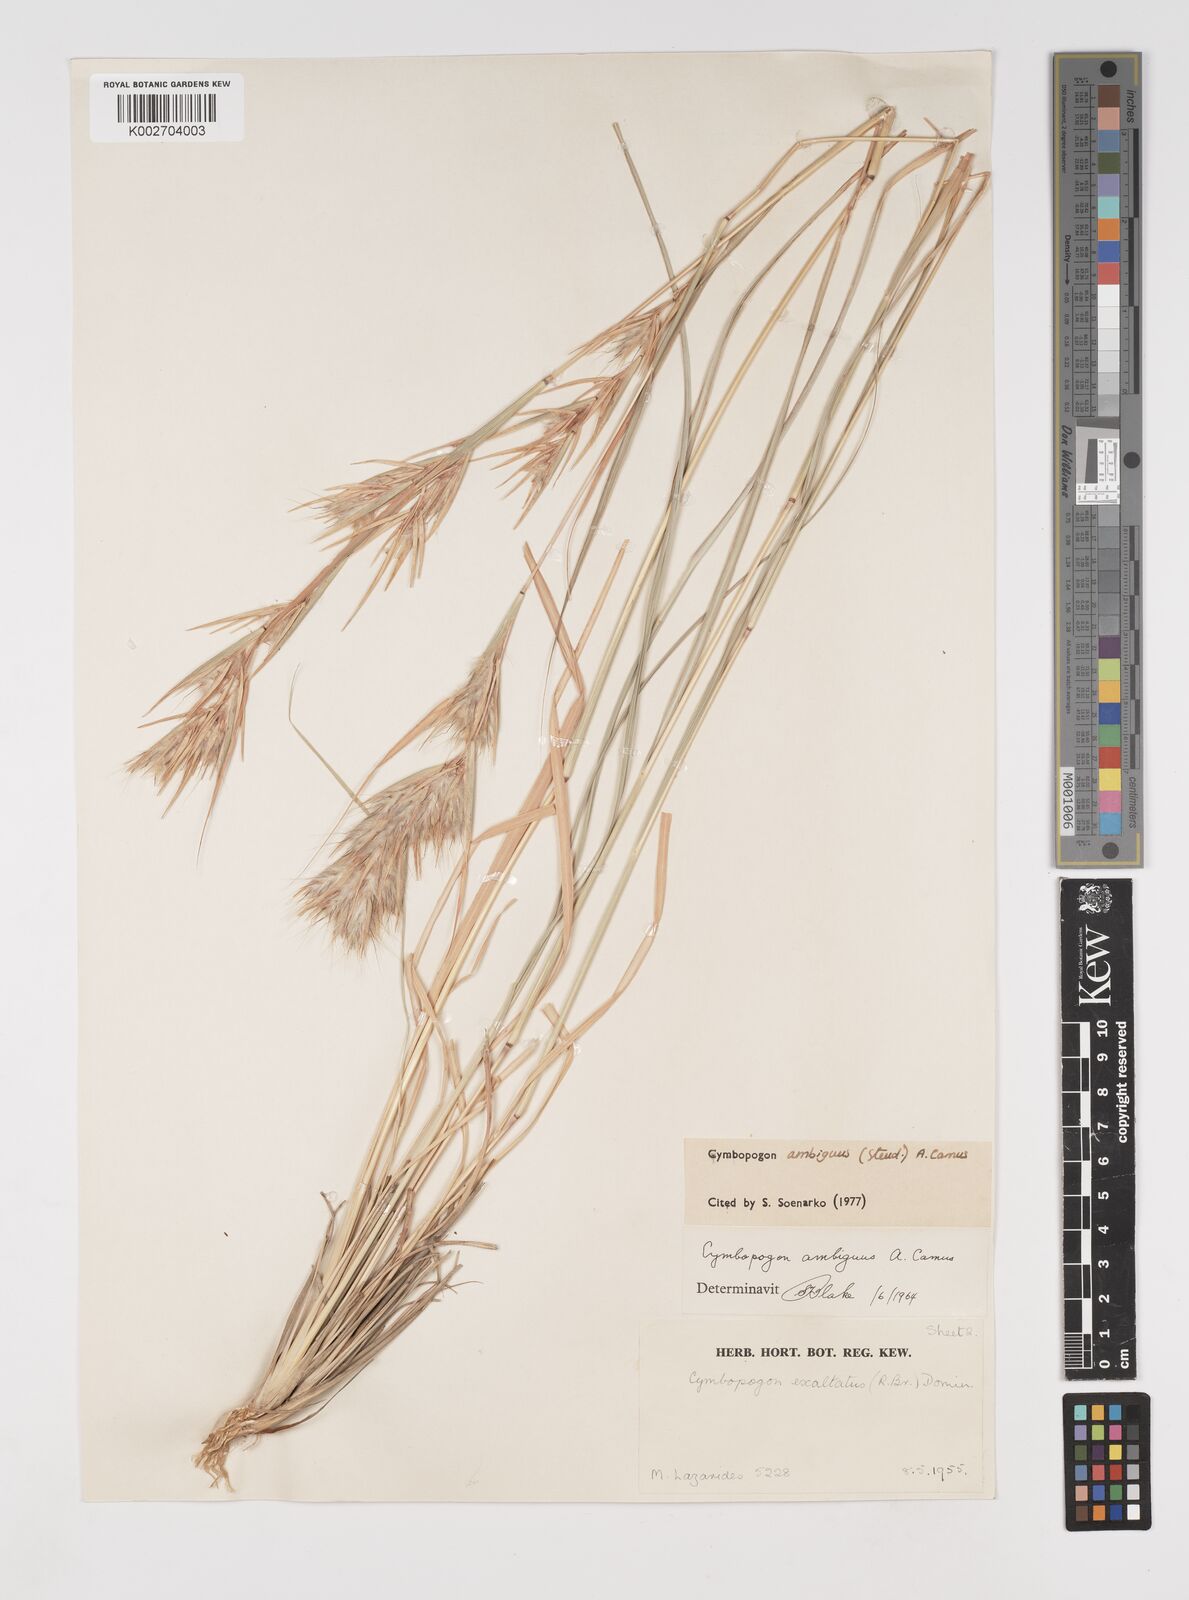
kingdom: Plantae
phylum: Tracheophyta
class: Liliopsida
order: Poales
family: Poaceae
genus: Cymbopogon
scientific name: Cymbopogon ambiguus
